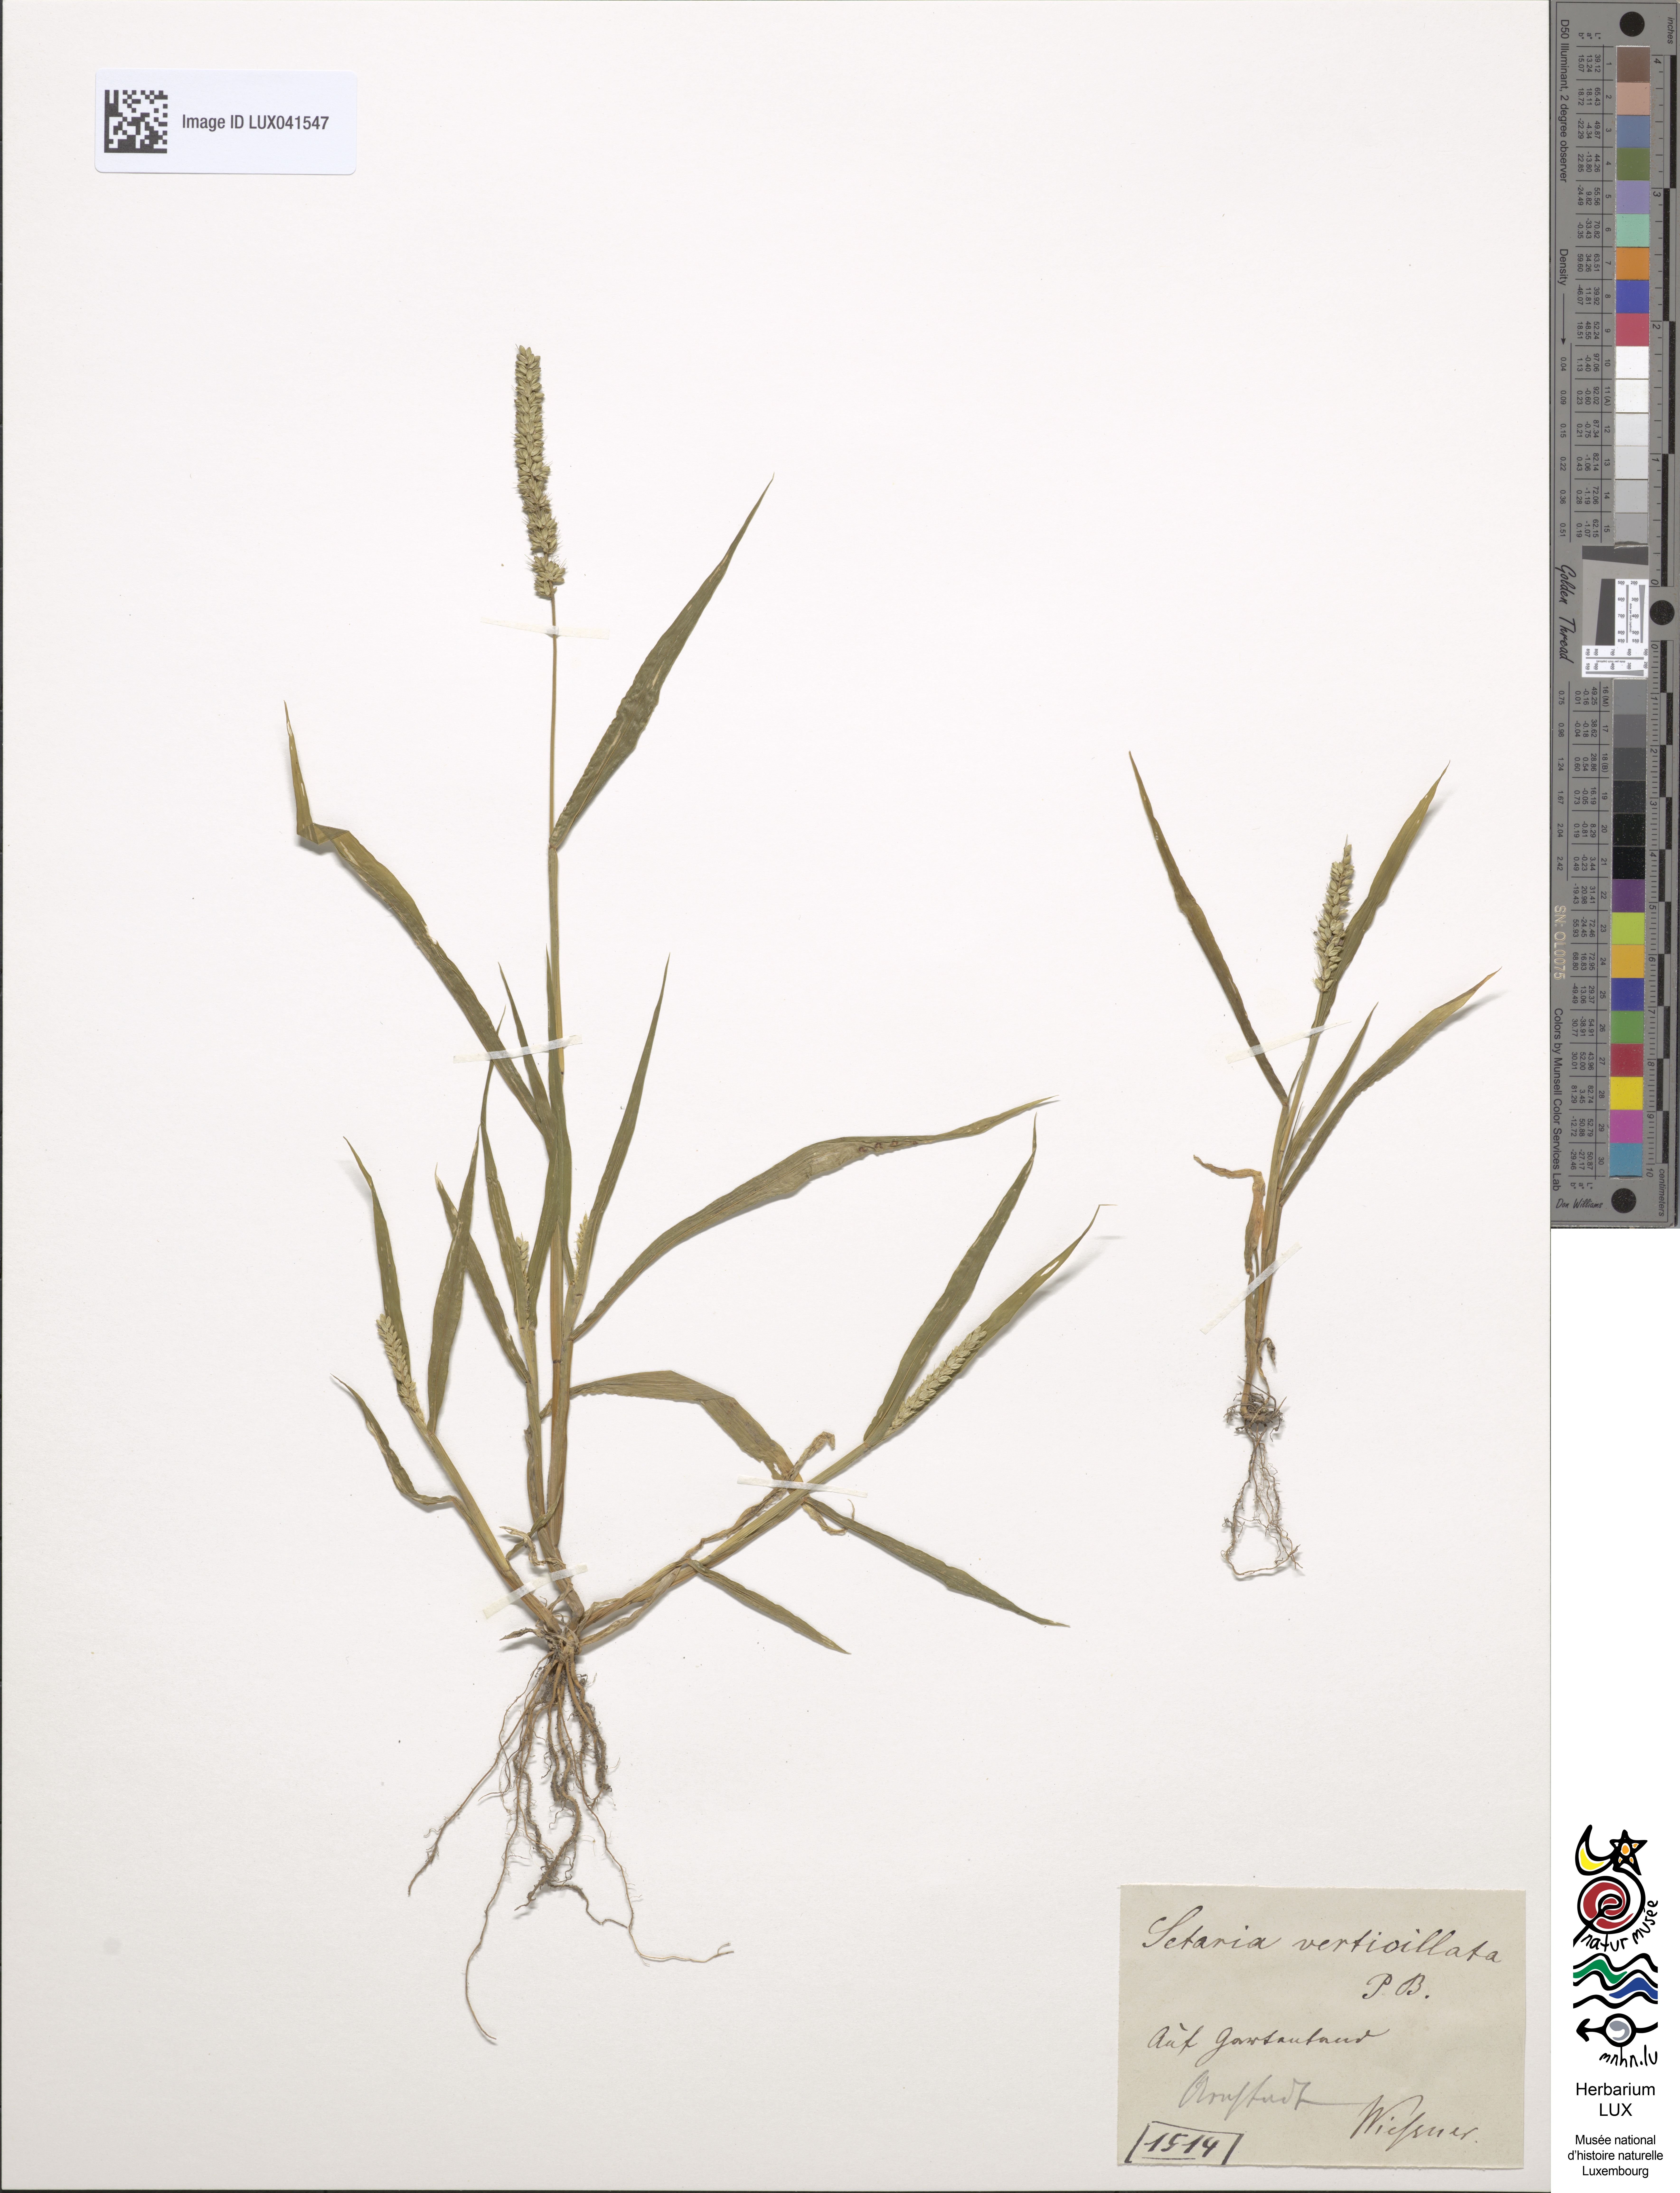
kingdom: Plantae
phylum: Tracheophyta
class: Liliopsida
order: Poales
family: Poaceae
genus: Setaria
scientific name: Setaria verticillata
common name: Hooked bristlegrass
